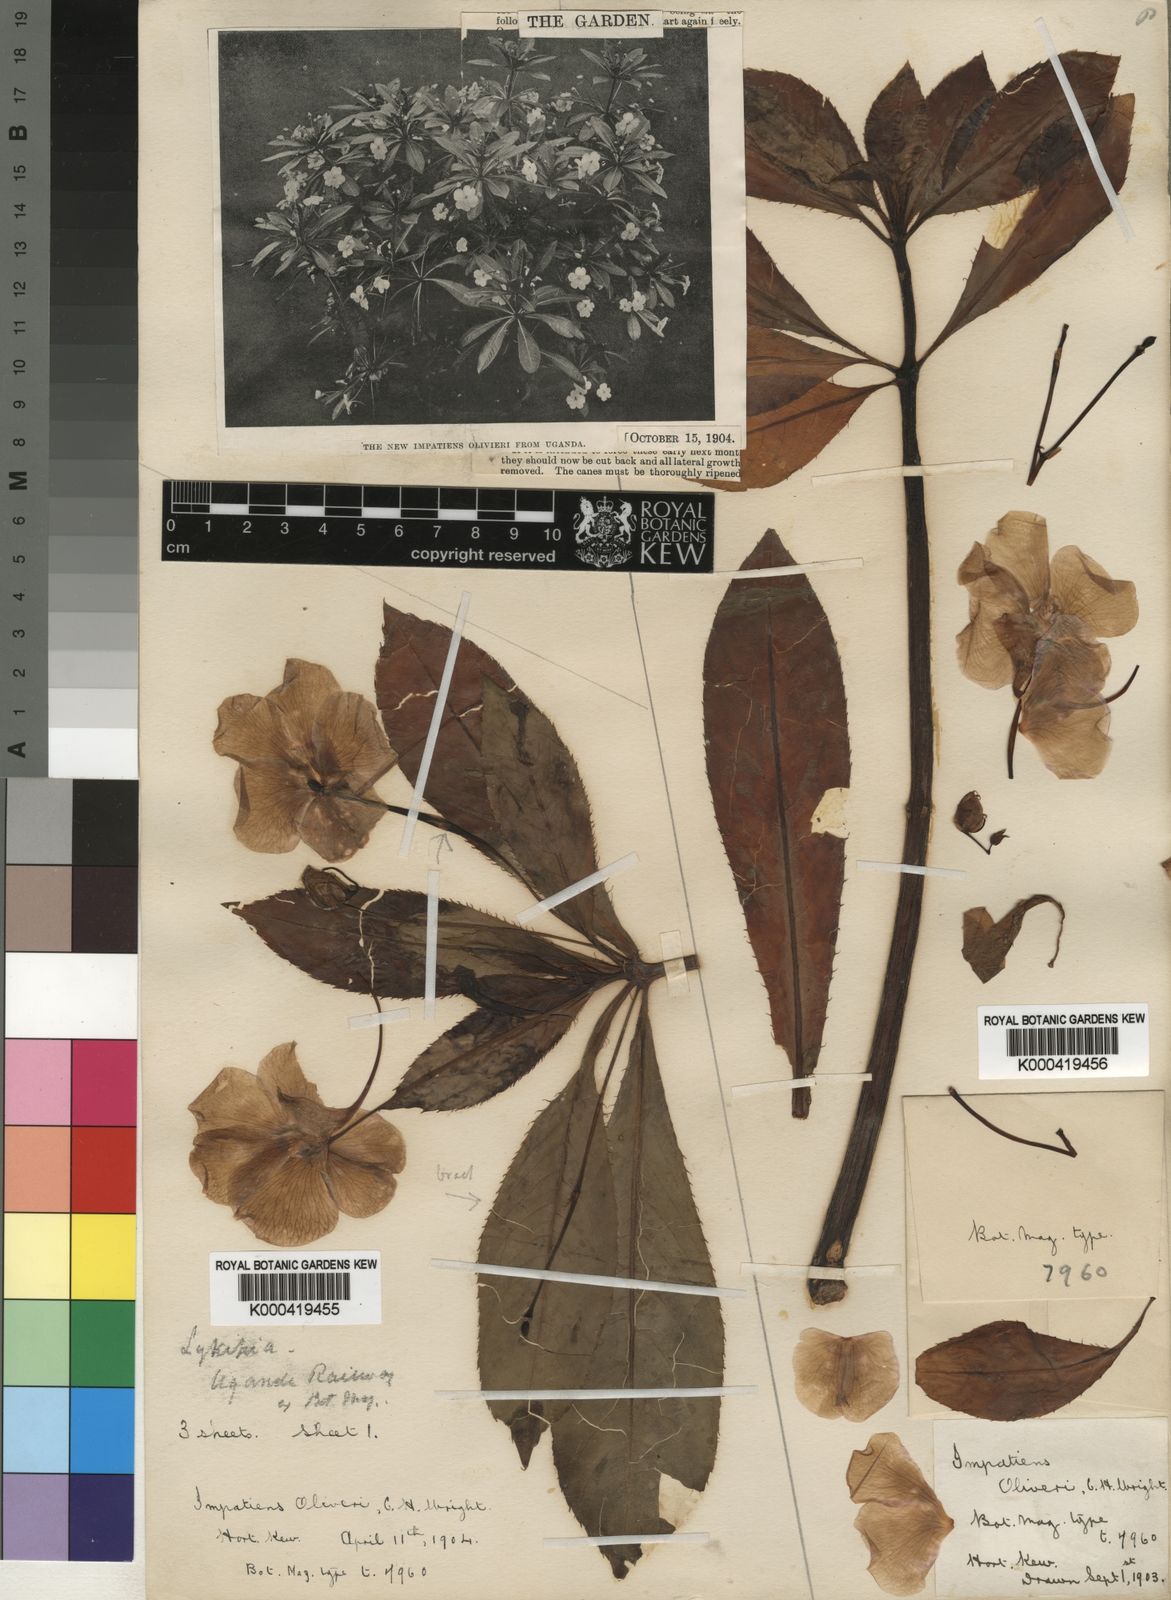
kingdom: Plantae
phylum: Tracheophyta
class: Magnoliopsida
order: Ericales
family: Balsaminaceae
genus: Impatiens
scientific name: Impatiens sodenii
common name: Oliver's touch-me-not
